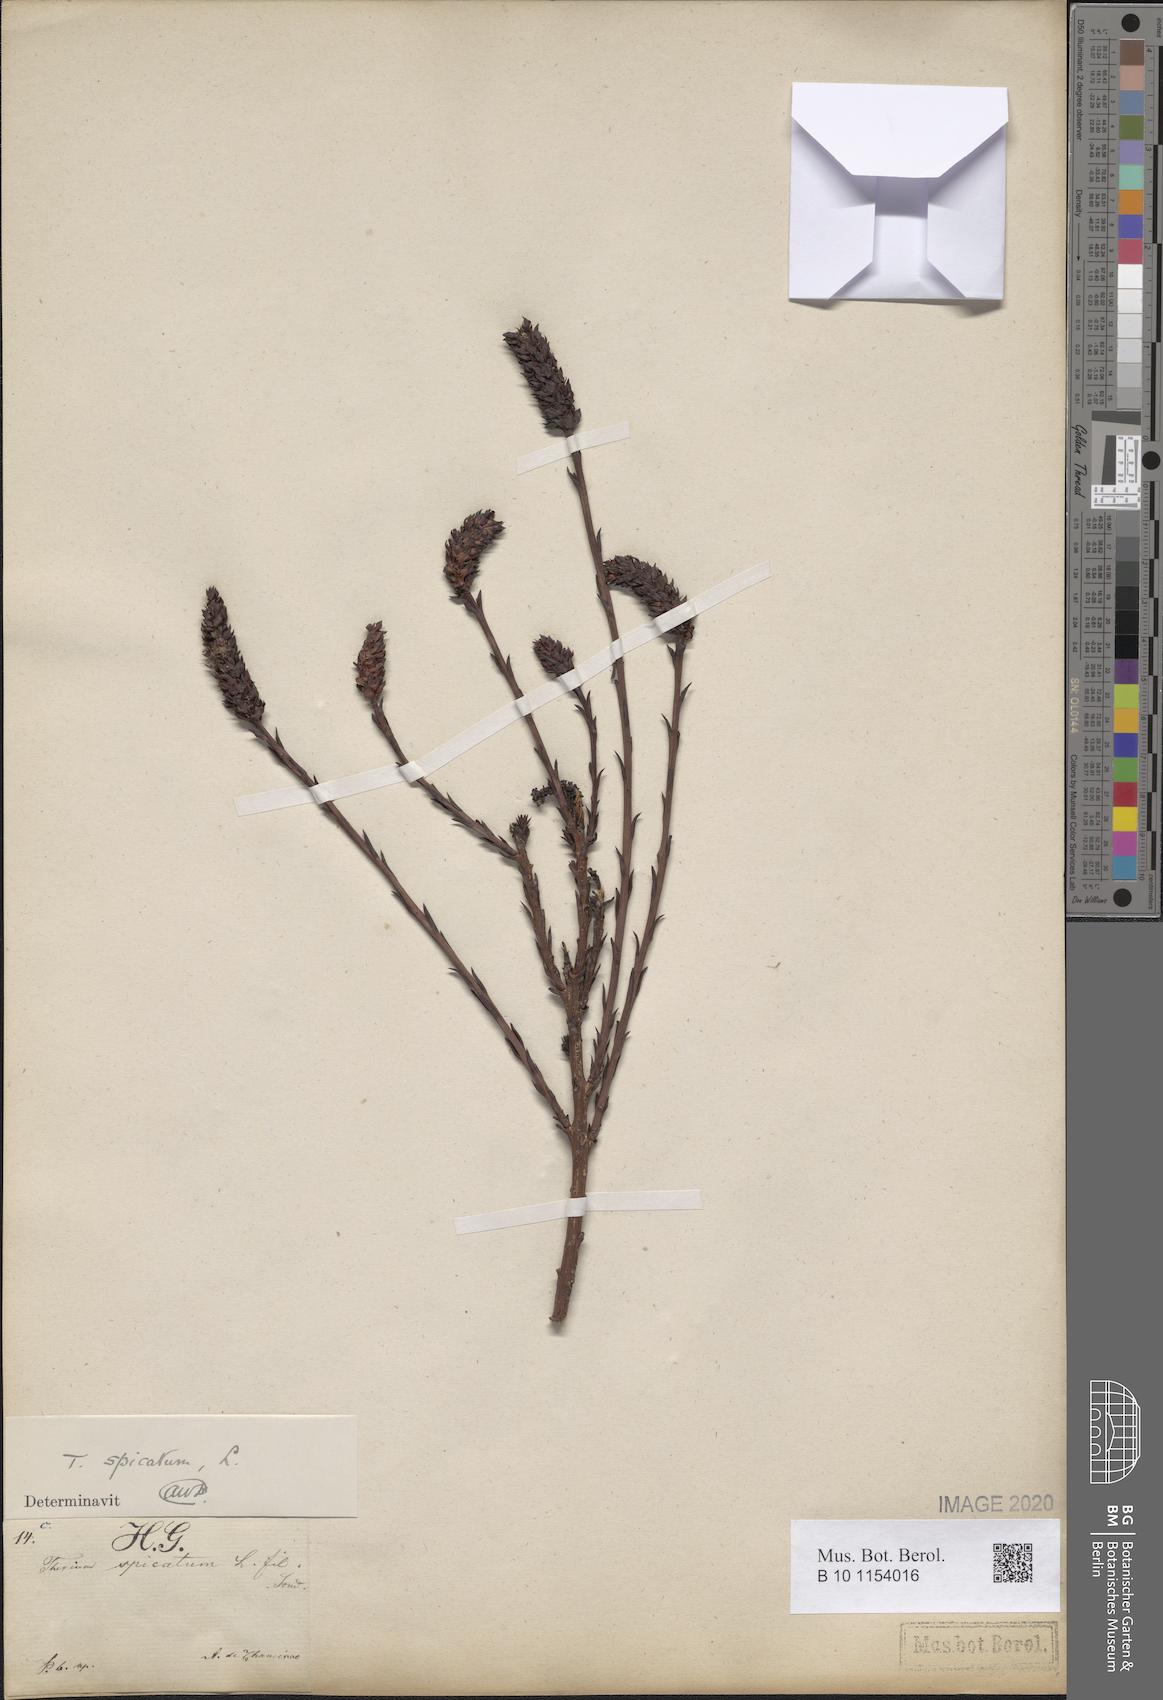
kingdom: Plantae
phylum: Tracheophyta
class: Magnoliopsida
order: Santalales
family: Thesiaceae
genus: Thesium
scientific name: Thesium spicatum
